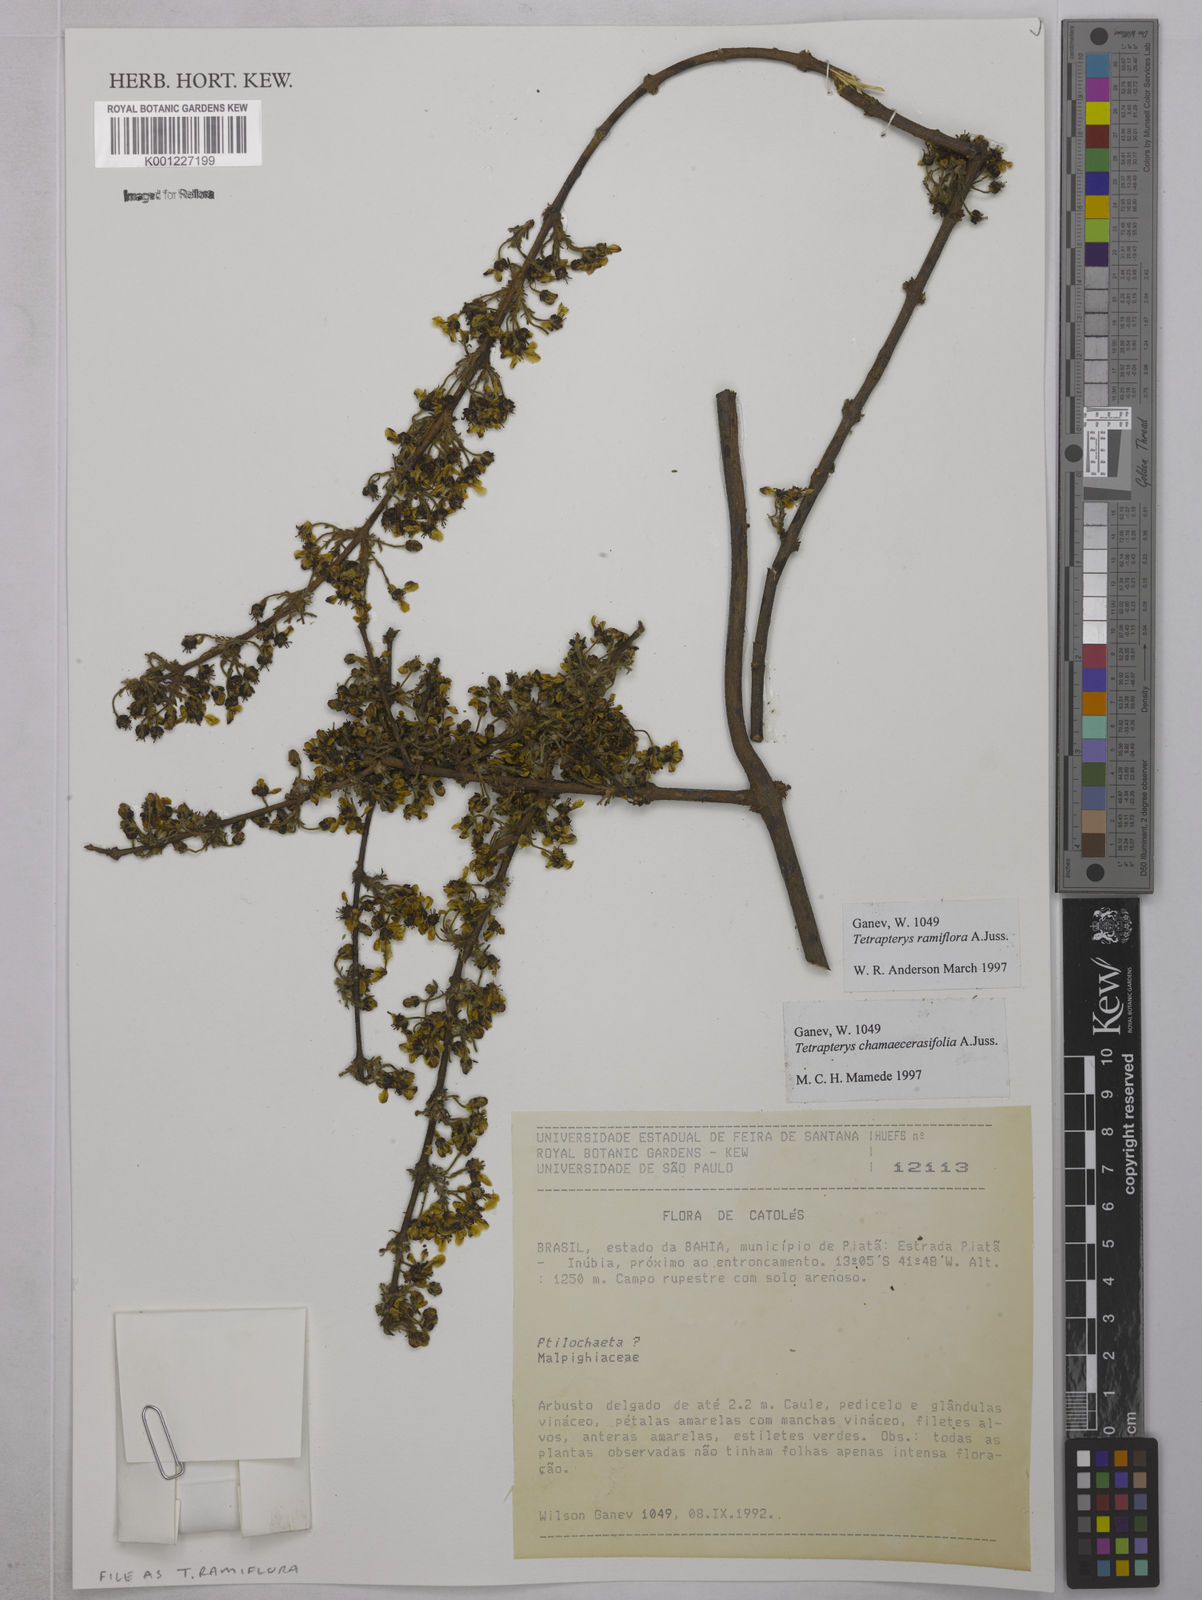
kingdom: Plantae
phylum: Tracheophyta
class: Magnoliopsida
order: Malpighiales
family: Malpighiaceae
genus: Glicophyllum
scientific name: Glicophyllum ramiflorum
